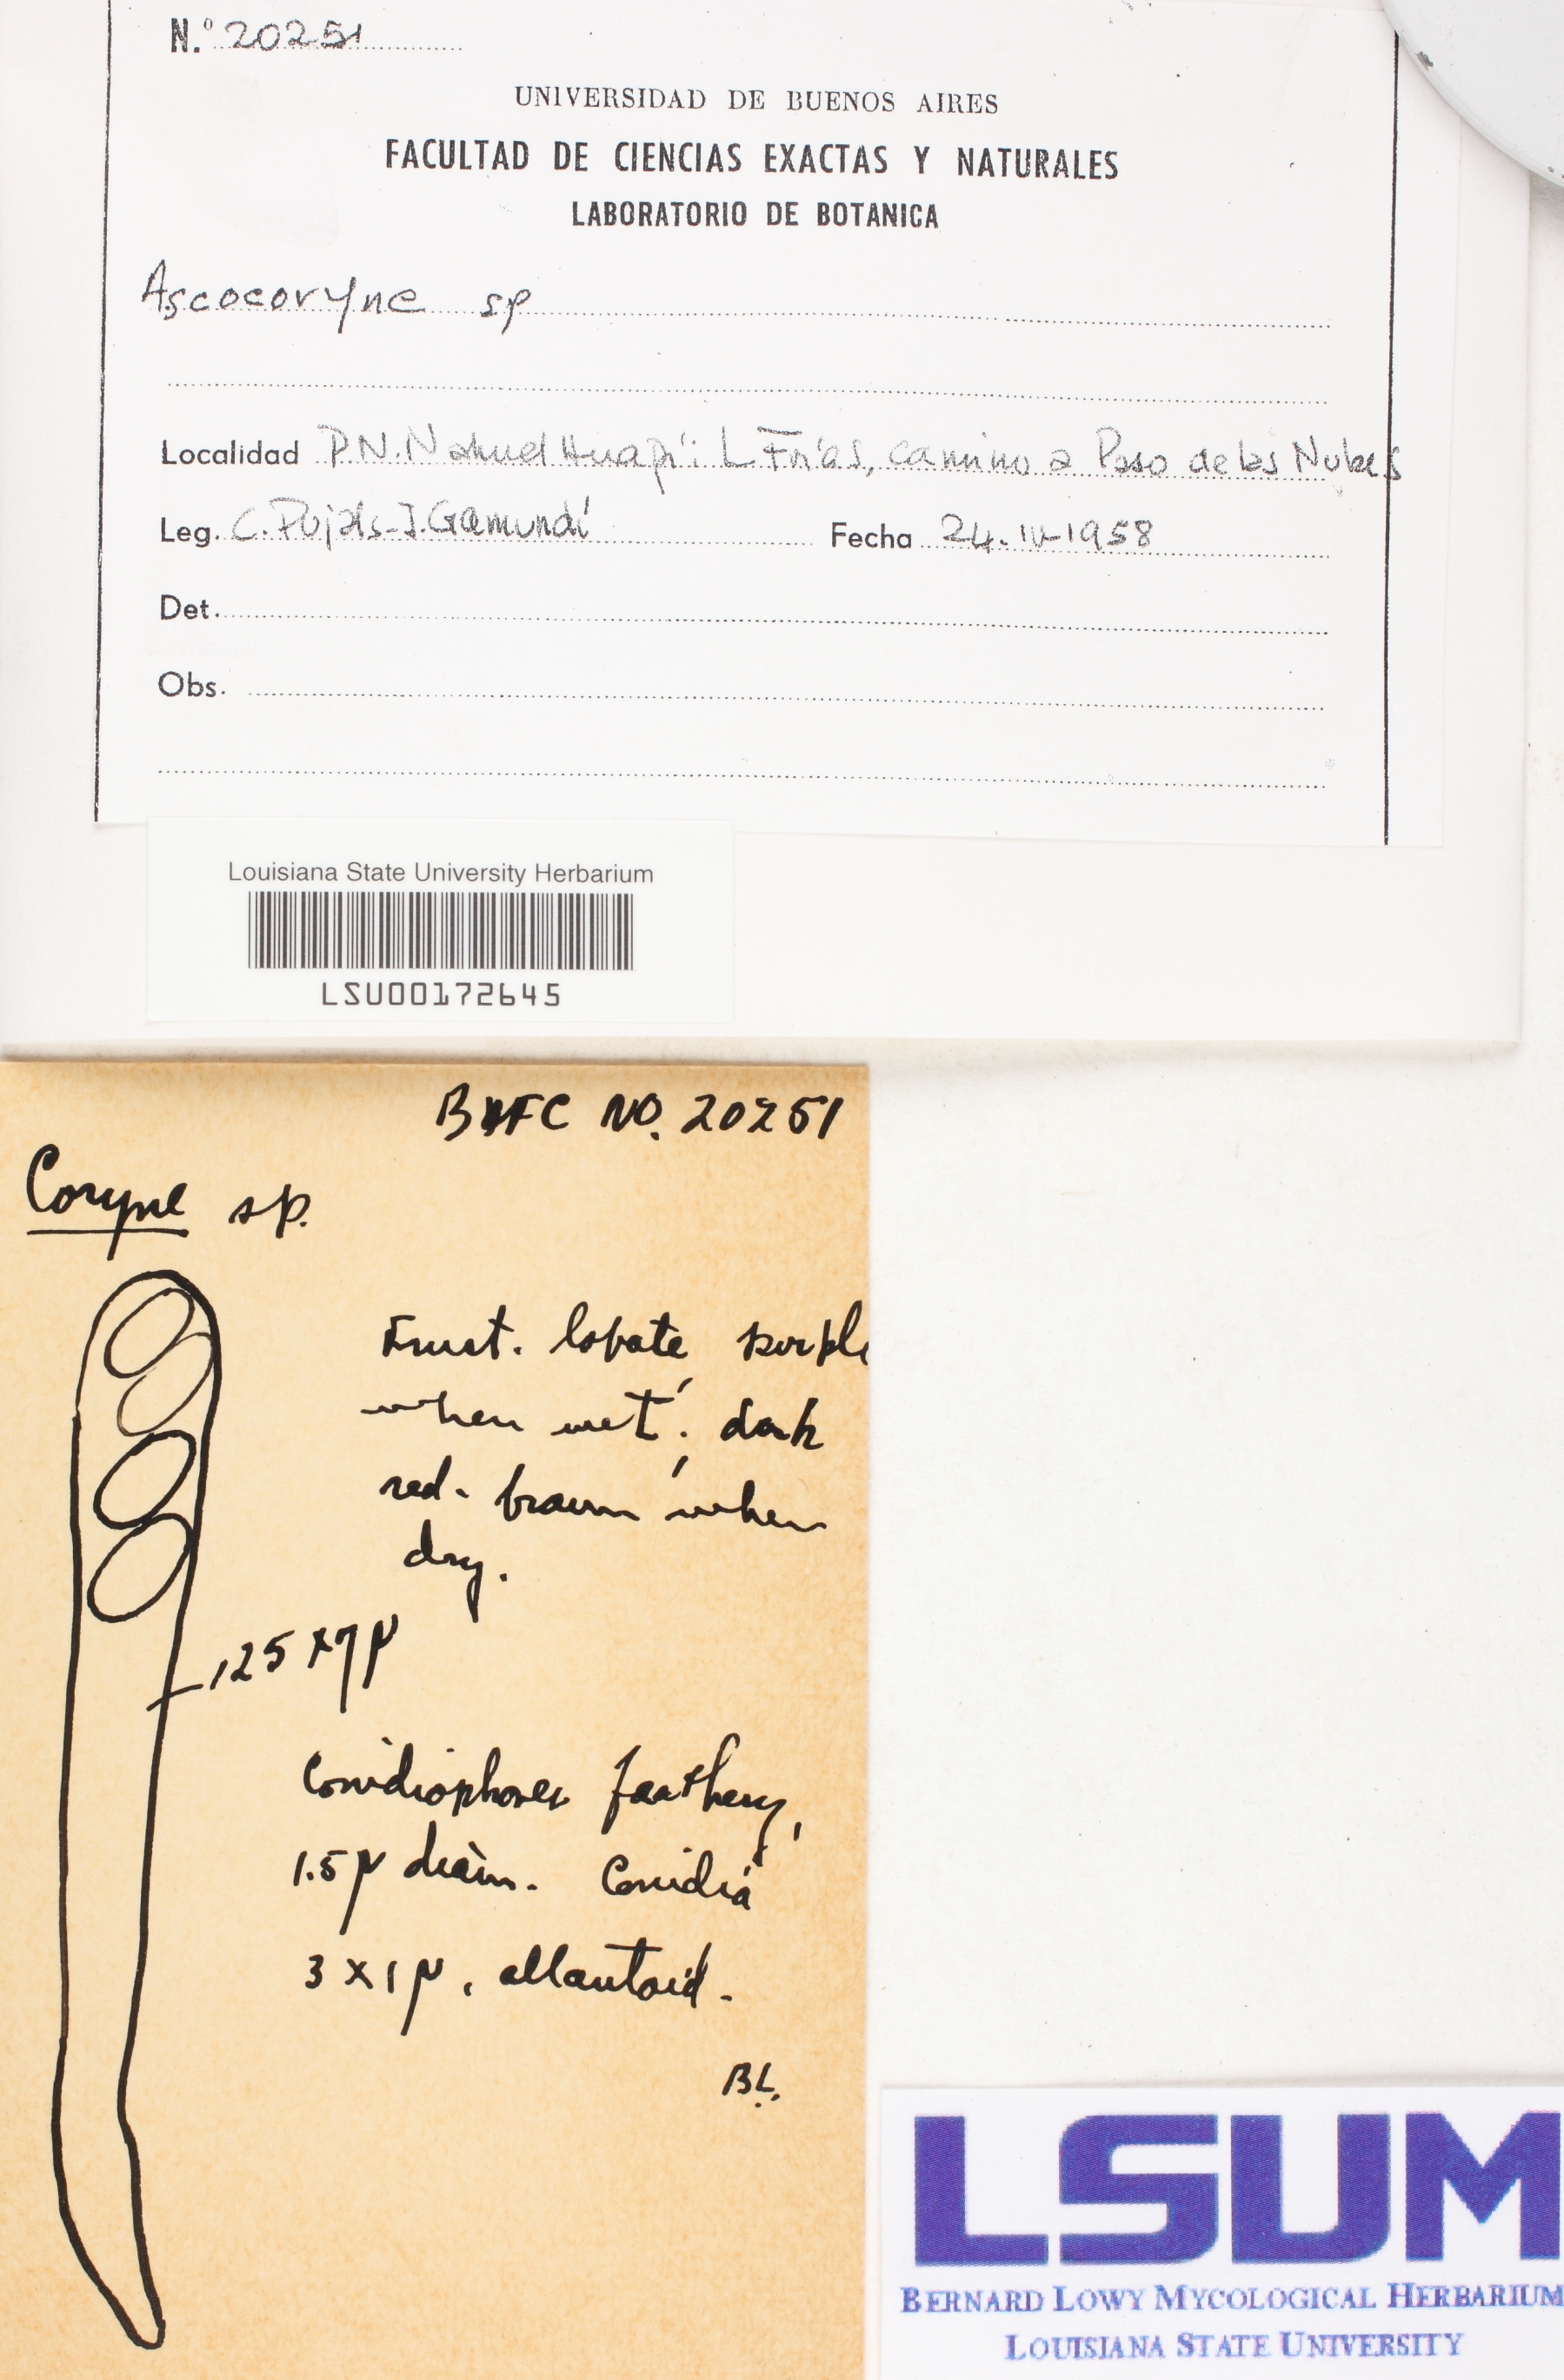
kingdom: Fungi
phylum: Ascomycota
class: Leotiomycetes
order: Helotiales
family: Gelatinodiscaceae
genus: Ascocoryne
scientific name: Ascocoryne
